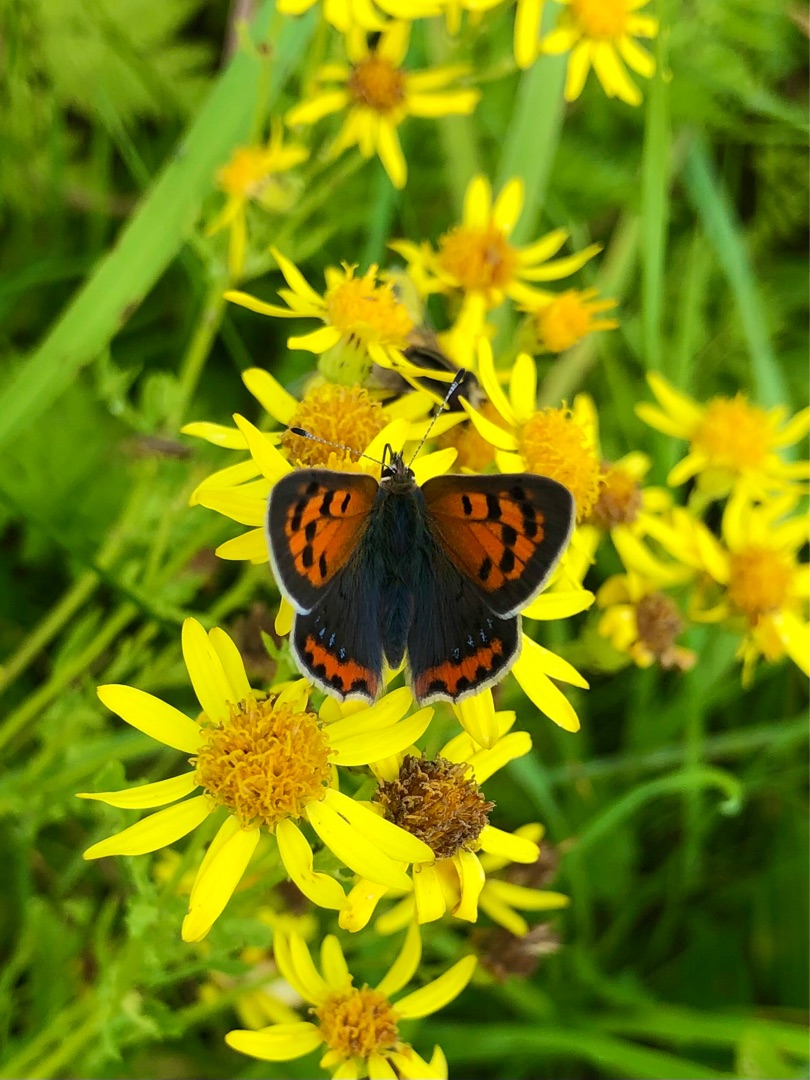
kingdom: Animalia
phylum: Arthropoda
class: Insecta
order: Lepidoptera
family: Lycaenidae
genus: Lycaena
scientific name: Lycaena phlaeas
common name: Lille ildfugl
